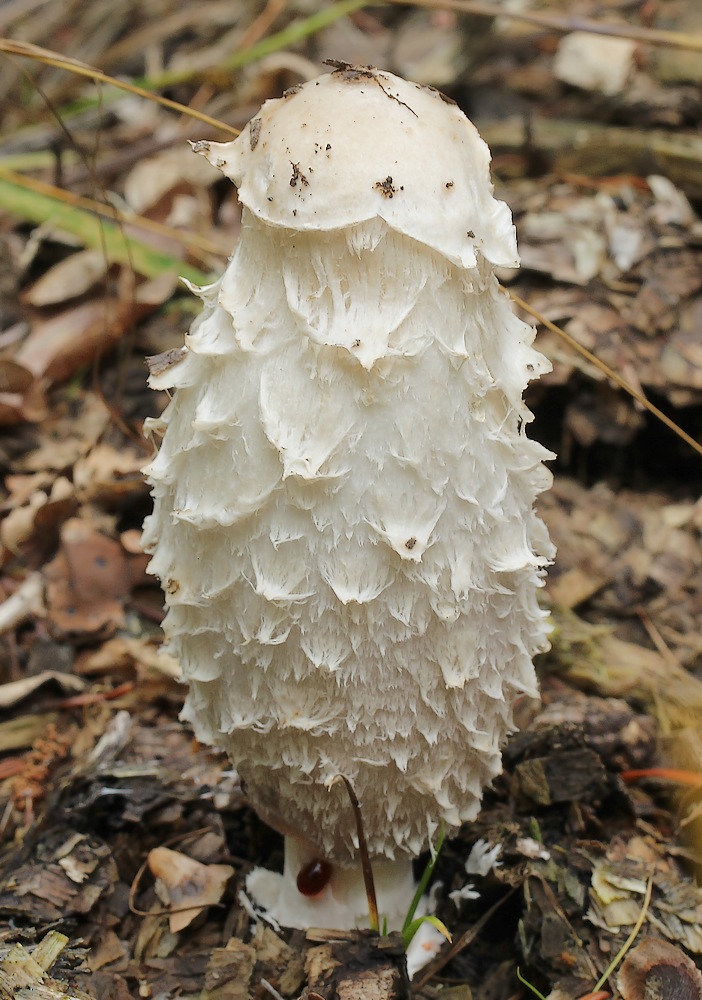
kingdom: Fungi
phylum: Basidiomycota
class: Agaricomycetes
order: Agaricales
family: Agaricaceae
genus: Coprinus
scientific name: Coprinus comatus
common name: stor parykhat
